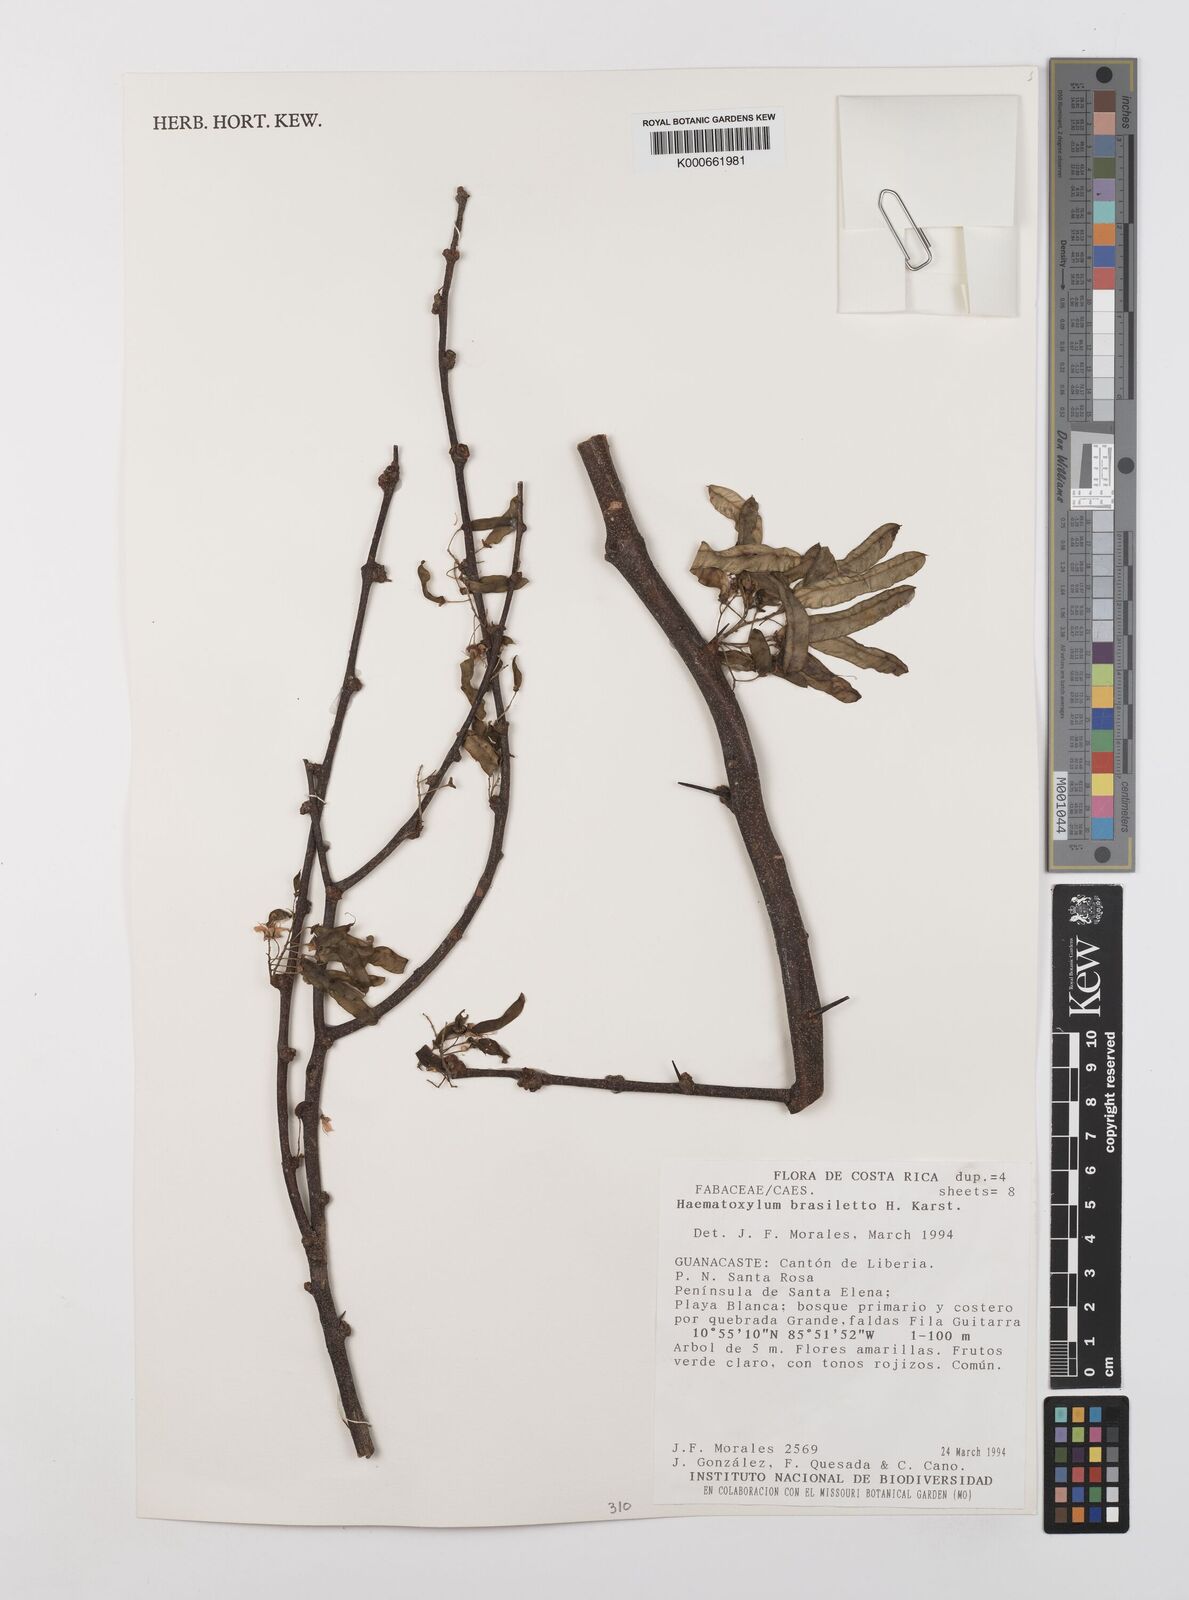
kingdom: Plantae
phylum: Tracheophyta
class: Magnoliopsida
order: Fabales
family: Fabaceae
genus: Haematoxylum
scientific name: Haematoxylum brasiletto
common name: Peachwood
